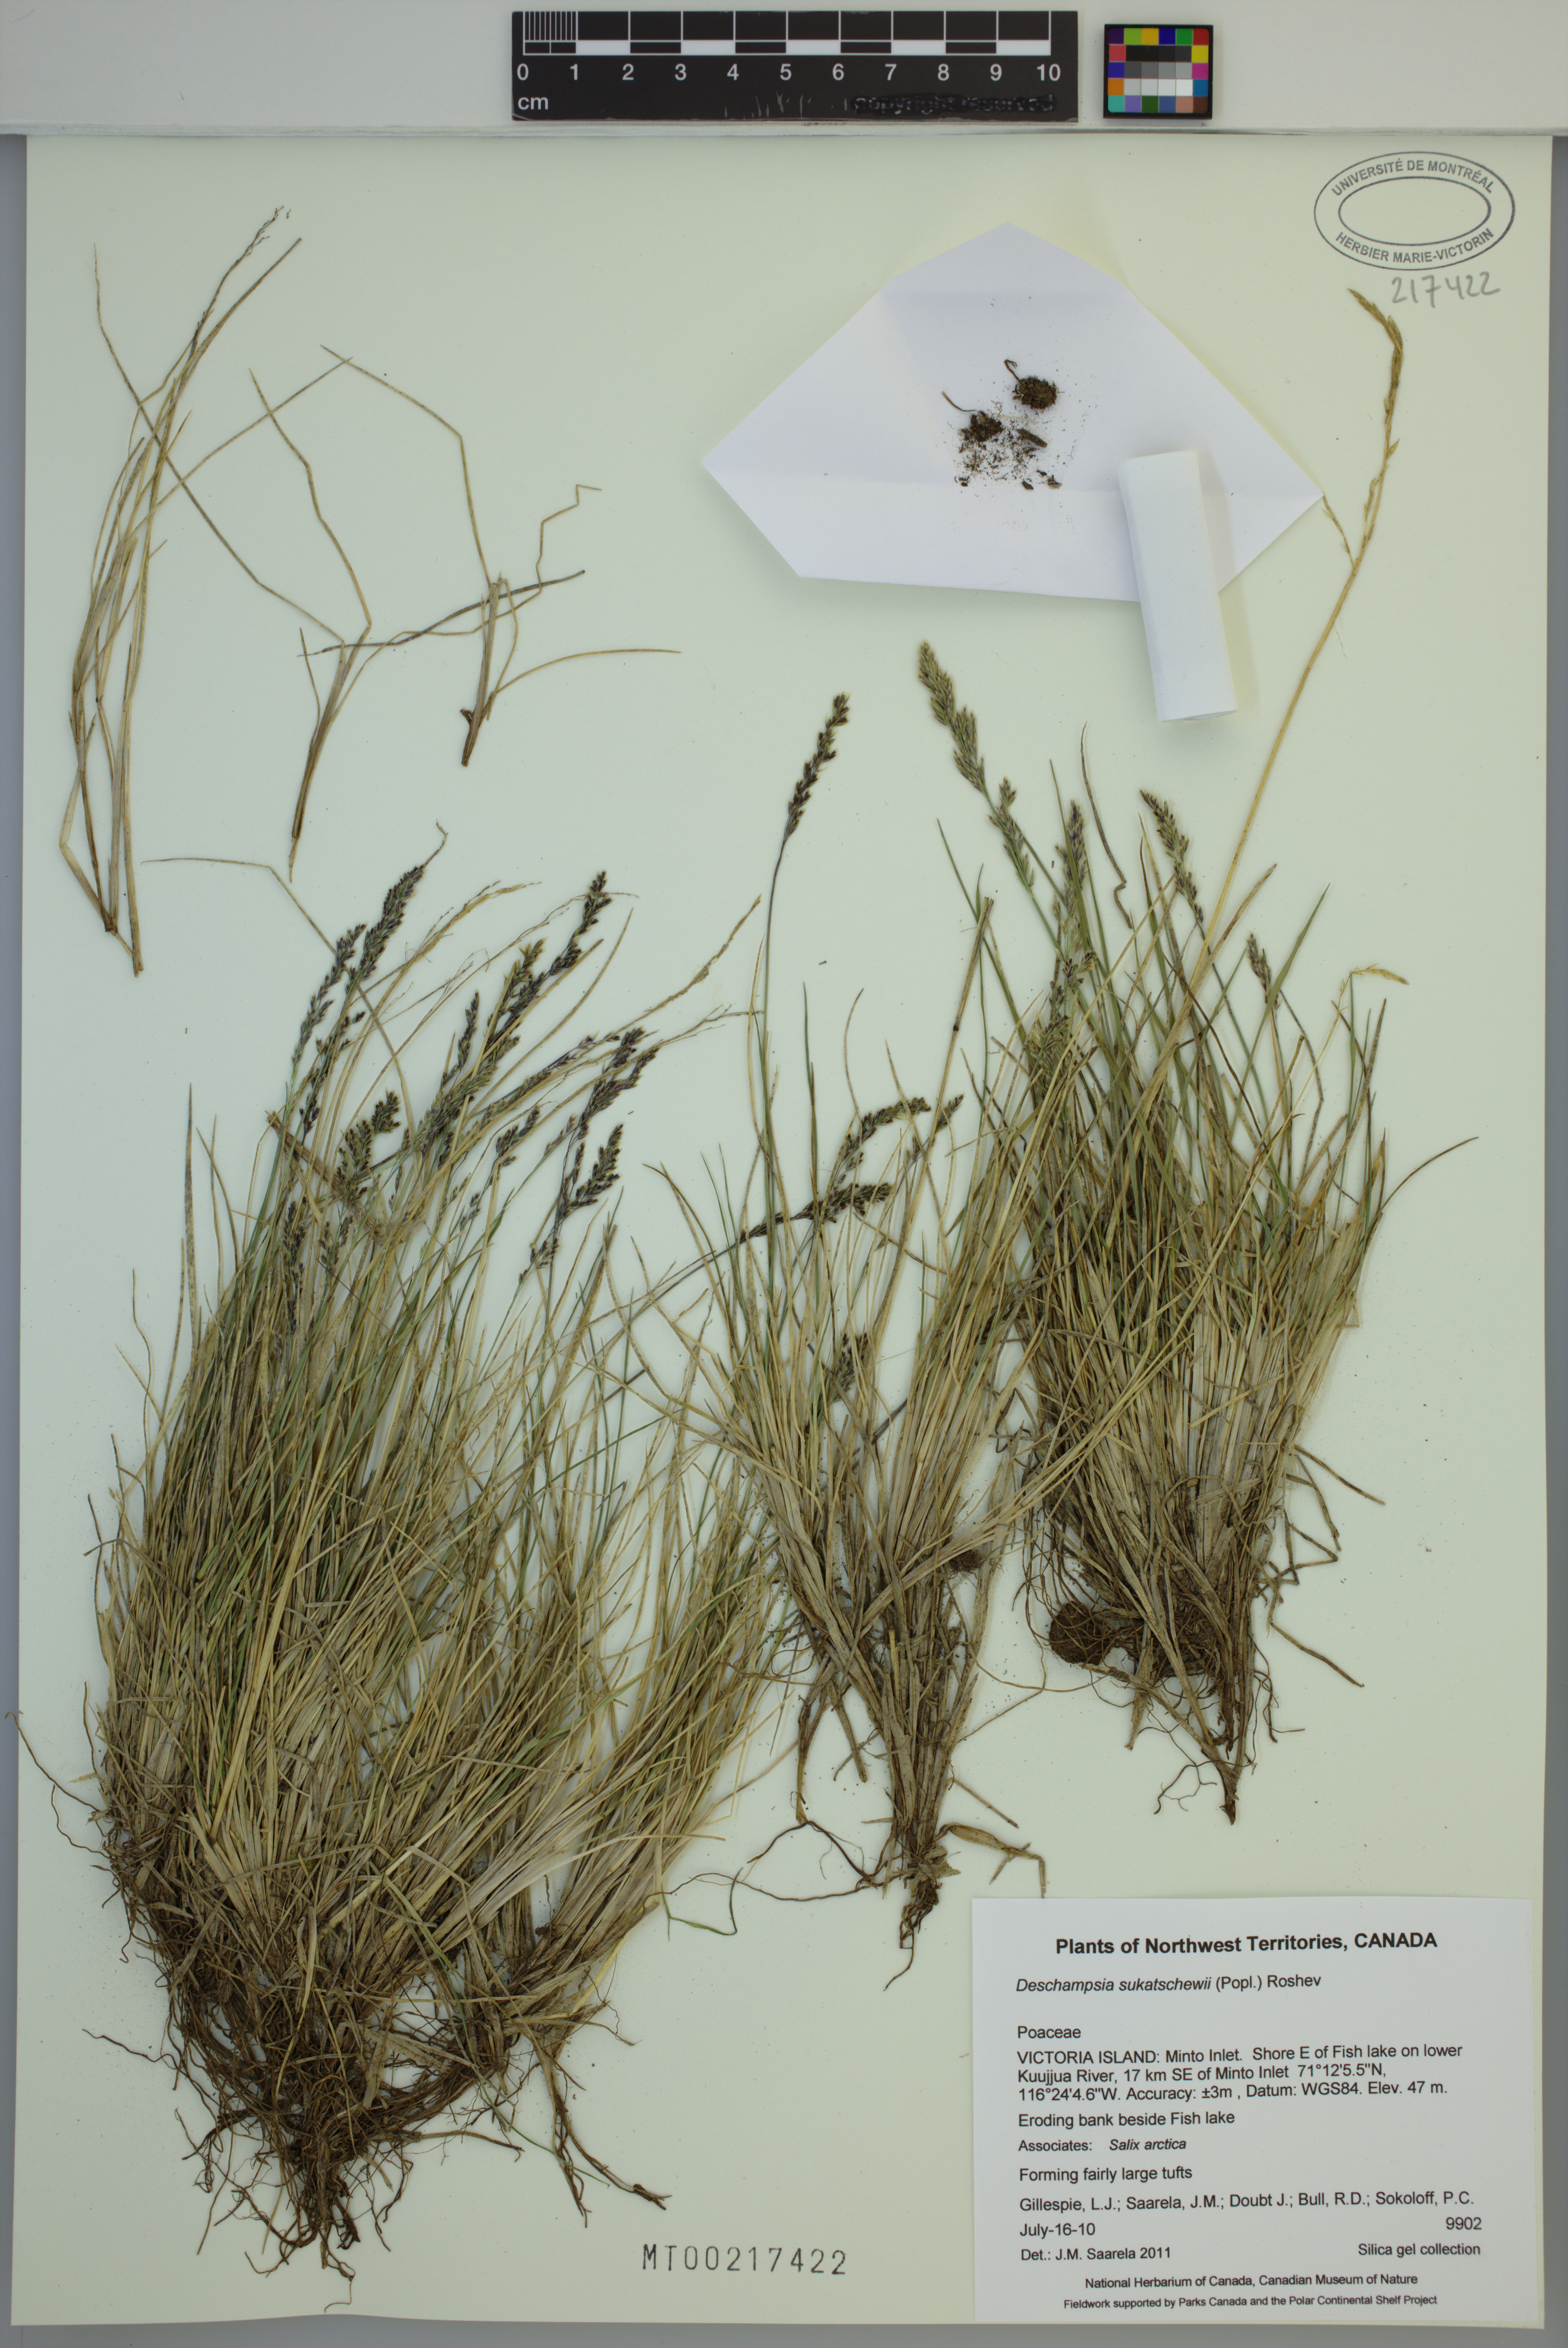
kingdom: Plantae
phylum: Tracheophyta
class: Liliopsida
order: Poales
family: Poaceae
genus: Deschampsia
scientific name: Deschampsia cespitosa
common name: Tufted hair-grass
